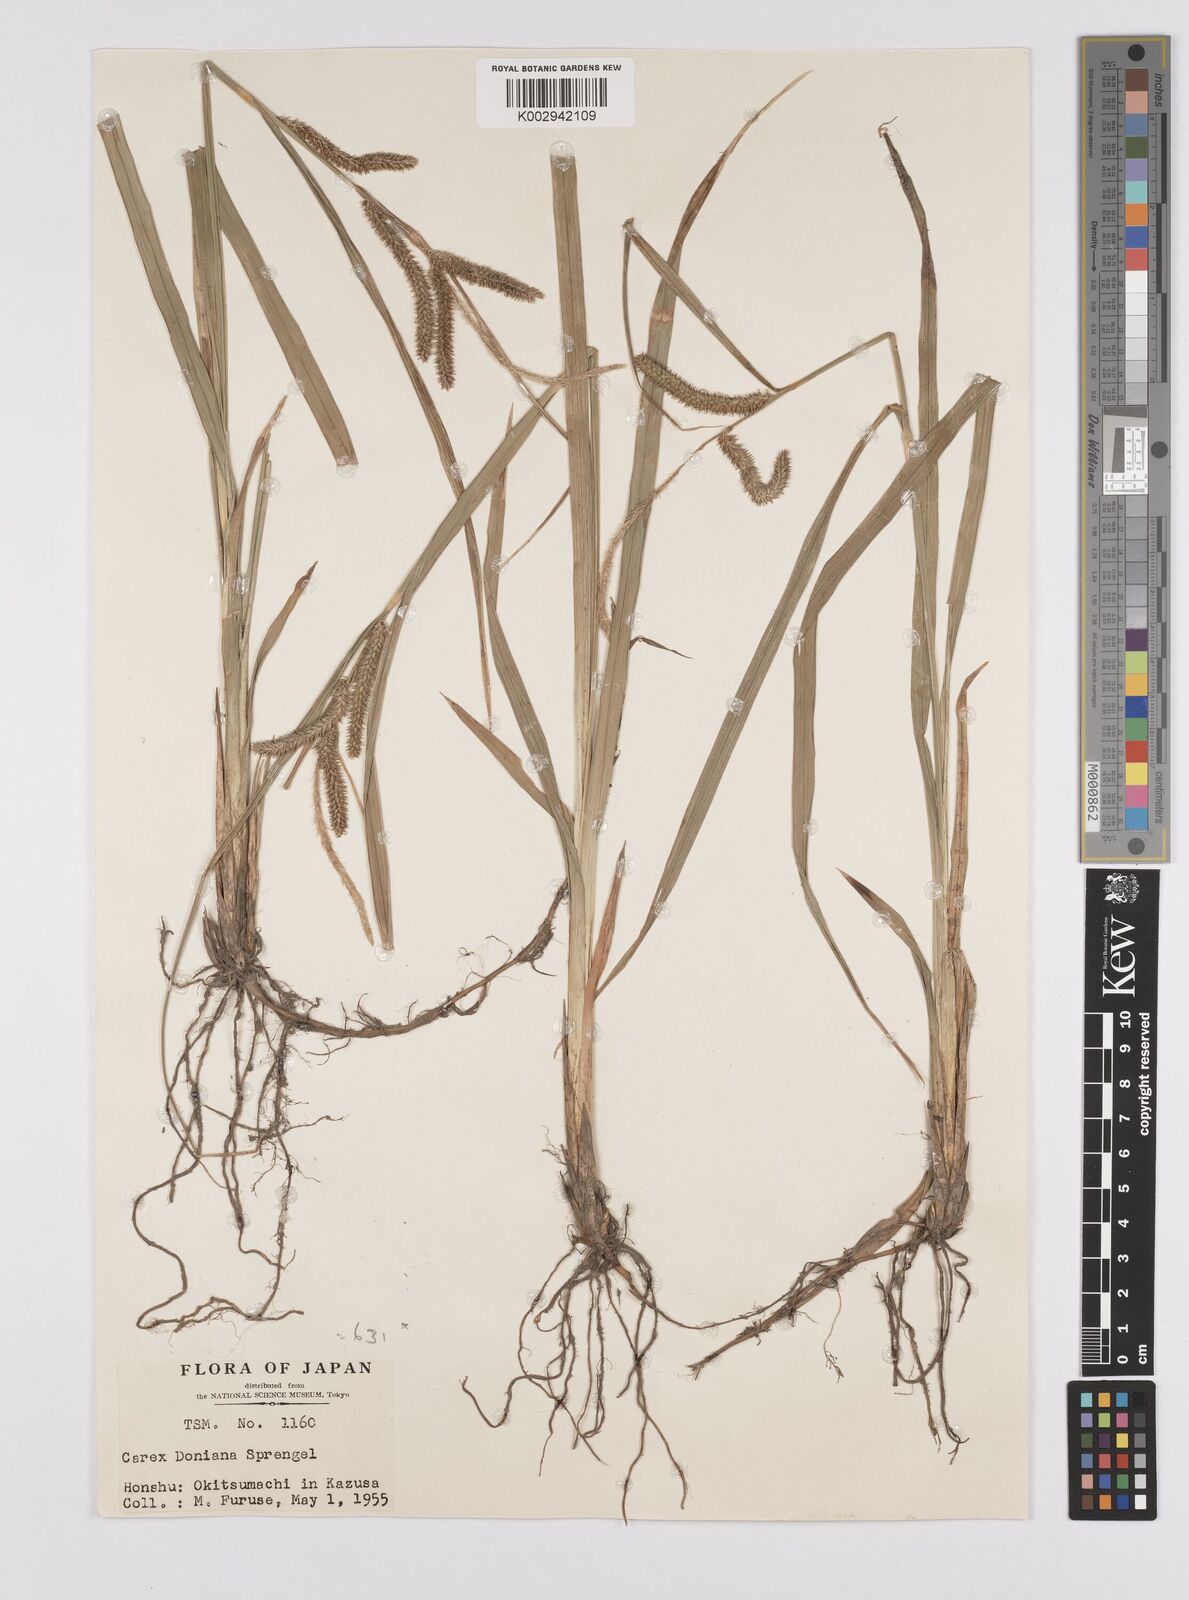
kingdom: Plantae
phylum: Tracheophyta
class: Liliopsida
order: Poales
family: Cyperaceae
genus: Carex
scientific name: Carex japonica
